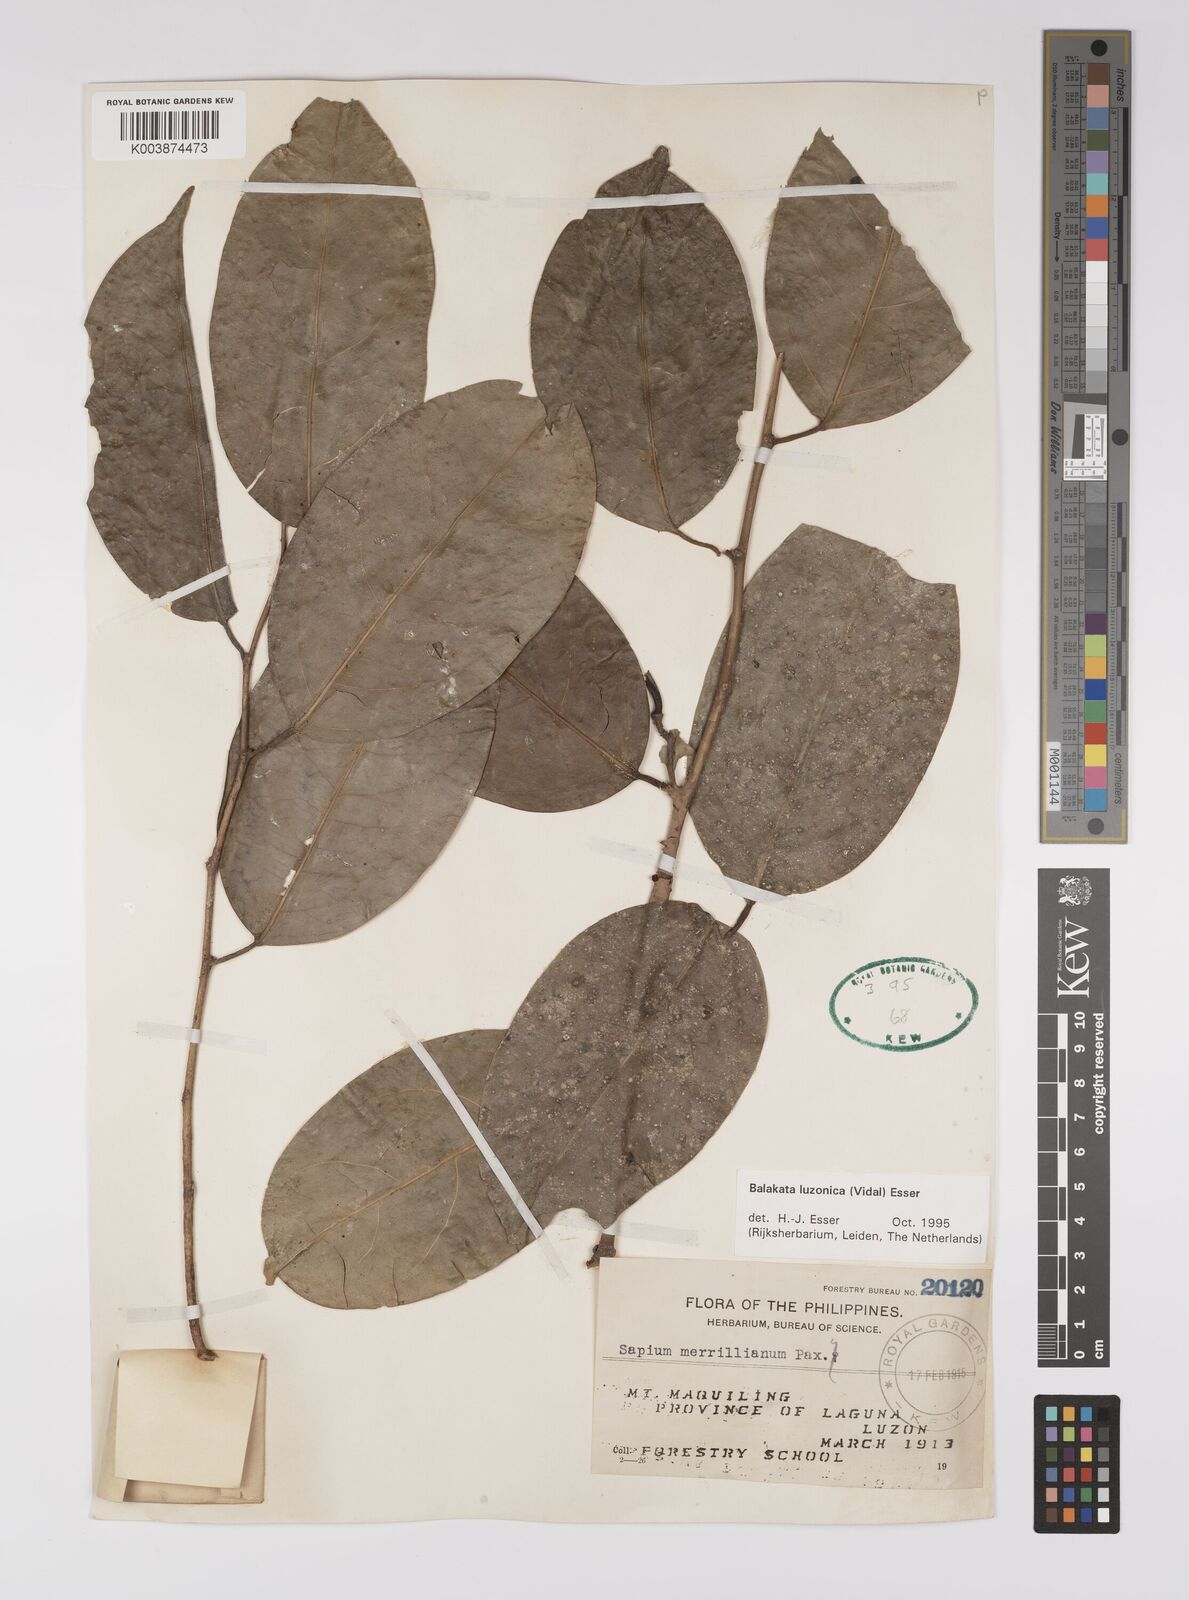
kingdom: Plantae
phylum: Tracheophyta
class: Magnoliopsida
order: Malpighiales
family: Euphorbiaceae
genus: Balakata
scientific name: Balakata luzonica
